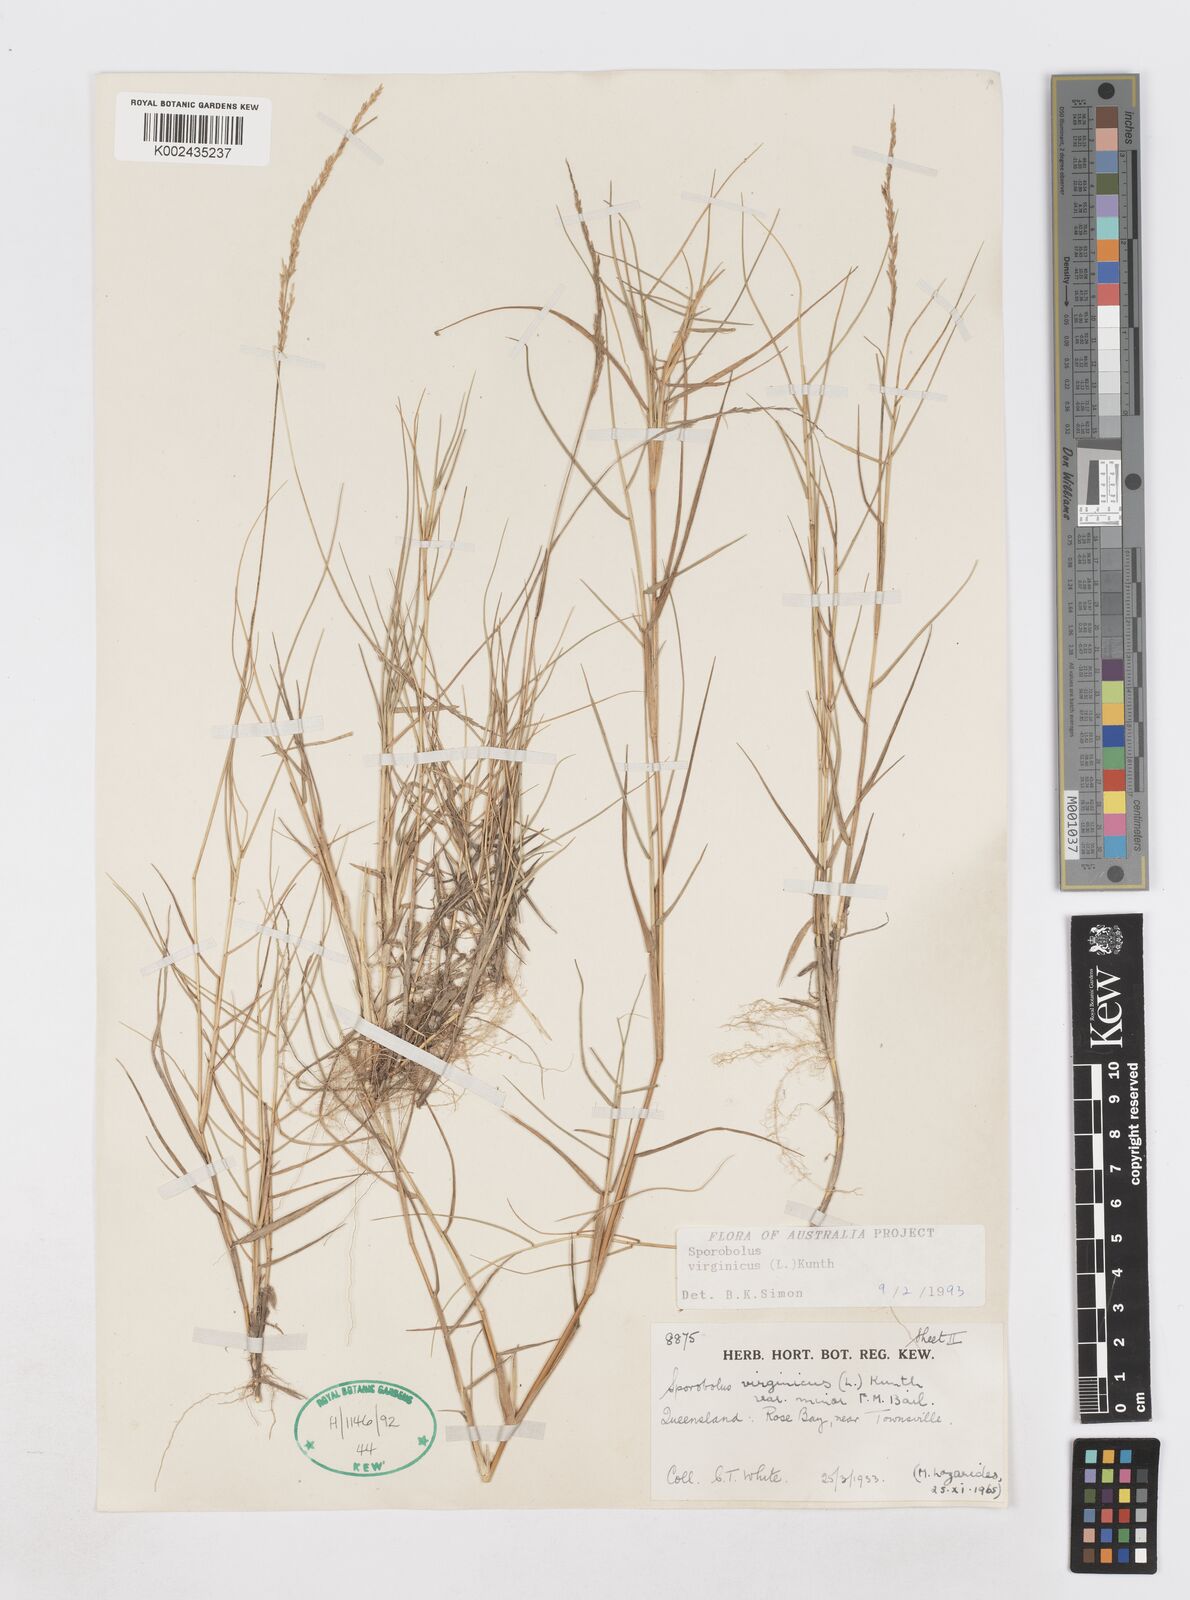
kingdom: Plantae
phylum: Tracheophyta
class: Liliopsida
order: Poales
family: Poaceae
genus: Sporobolus
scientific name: Sporobolus virginicus
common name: Beach dropseed
